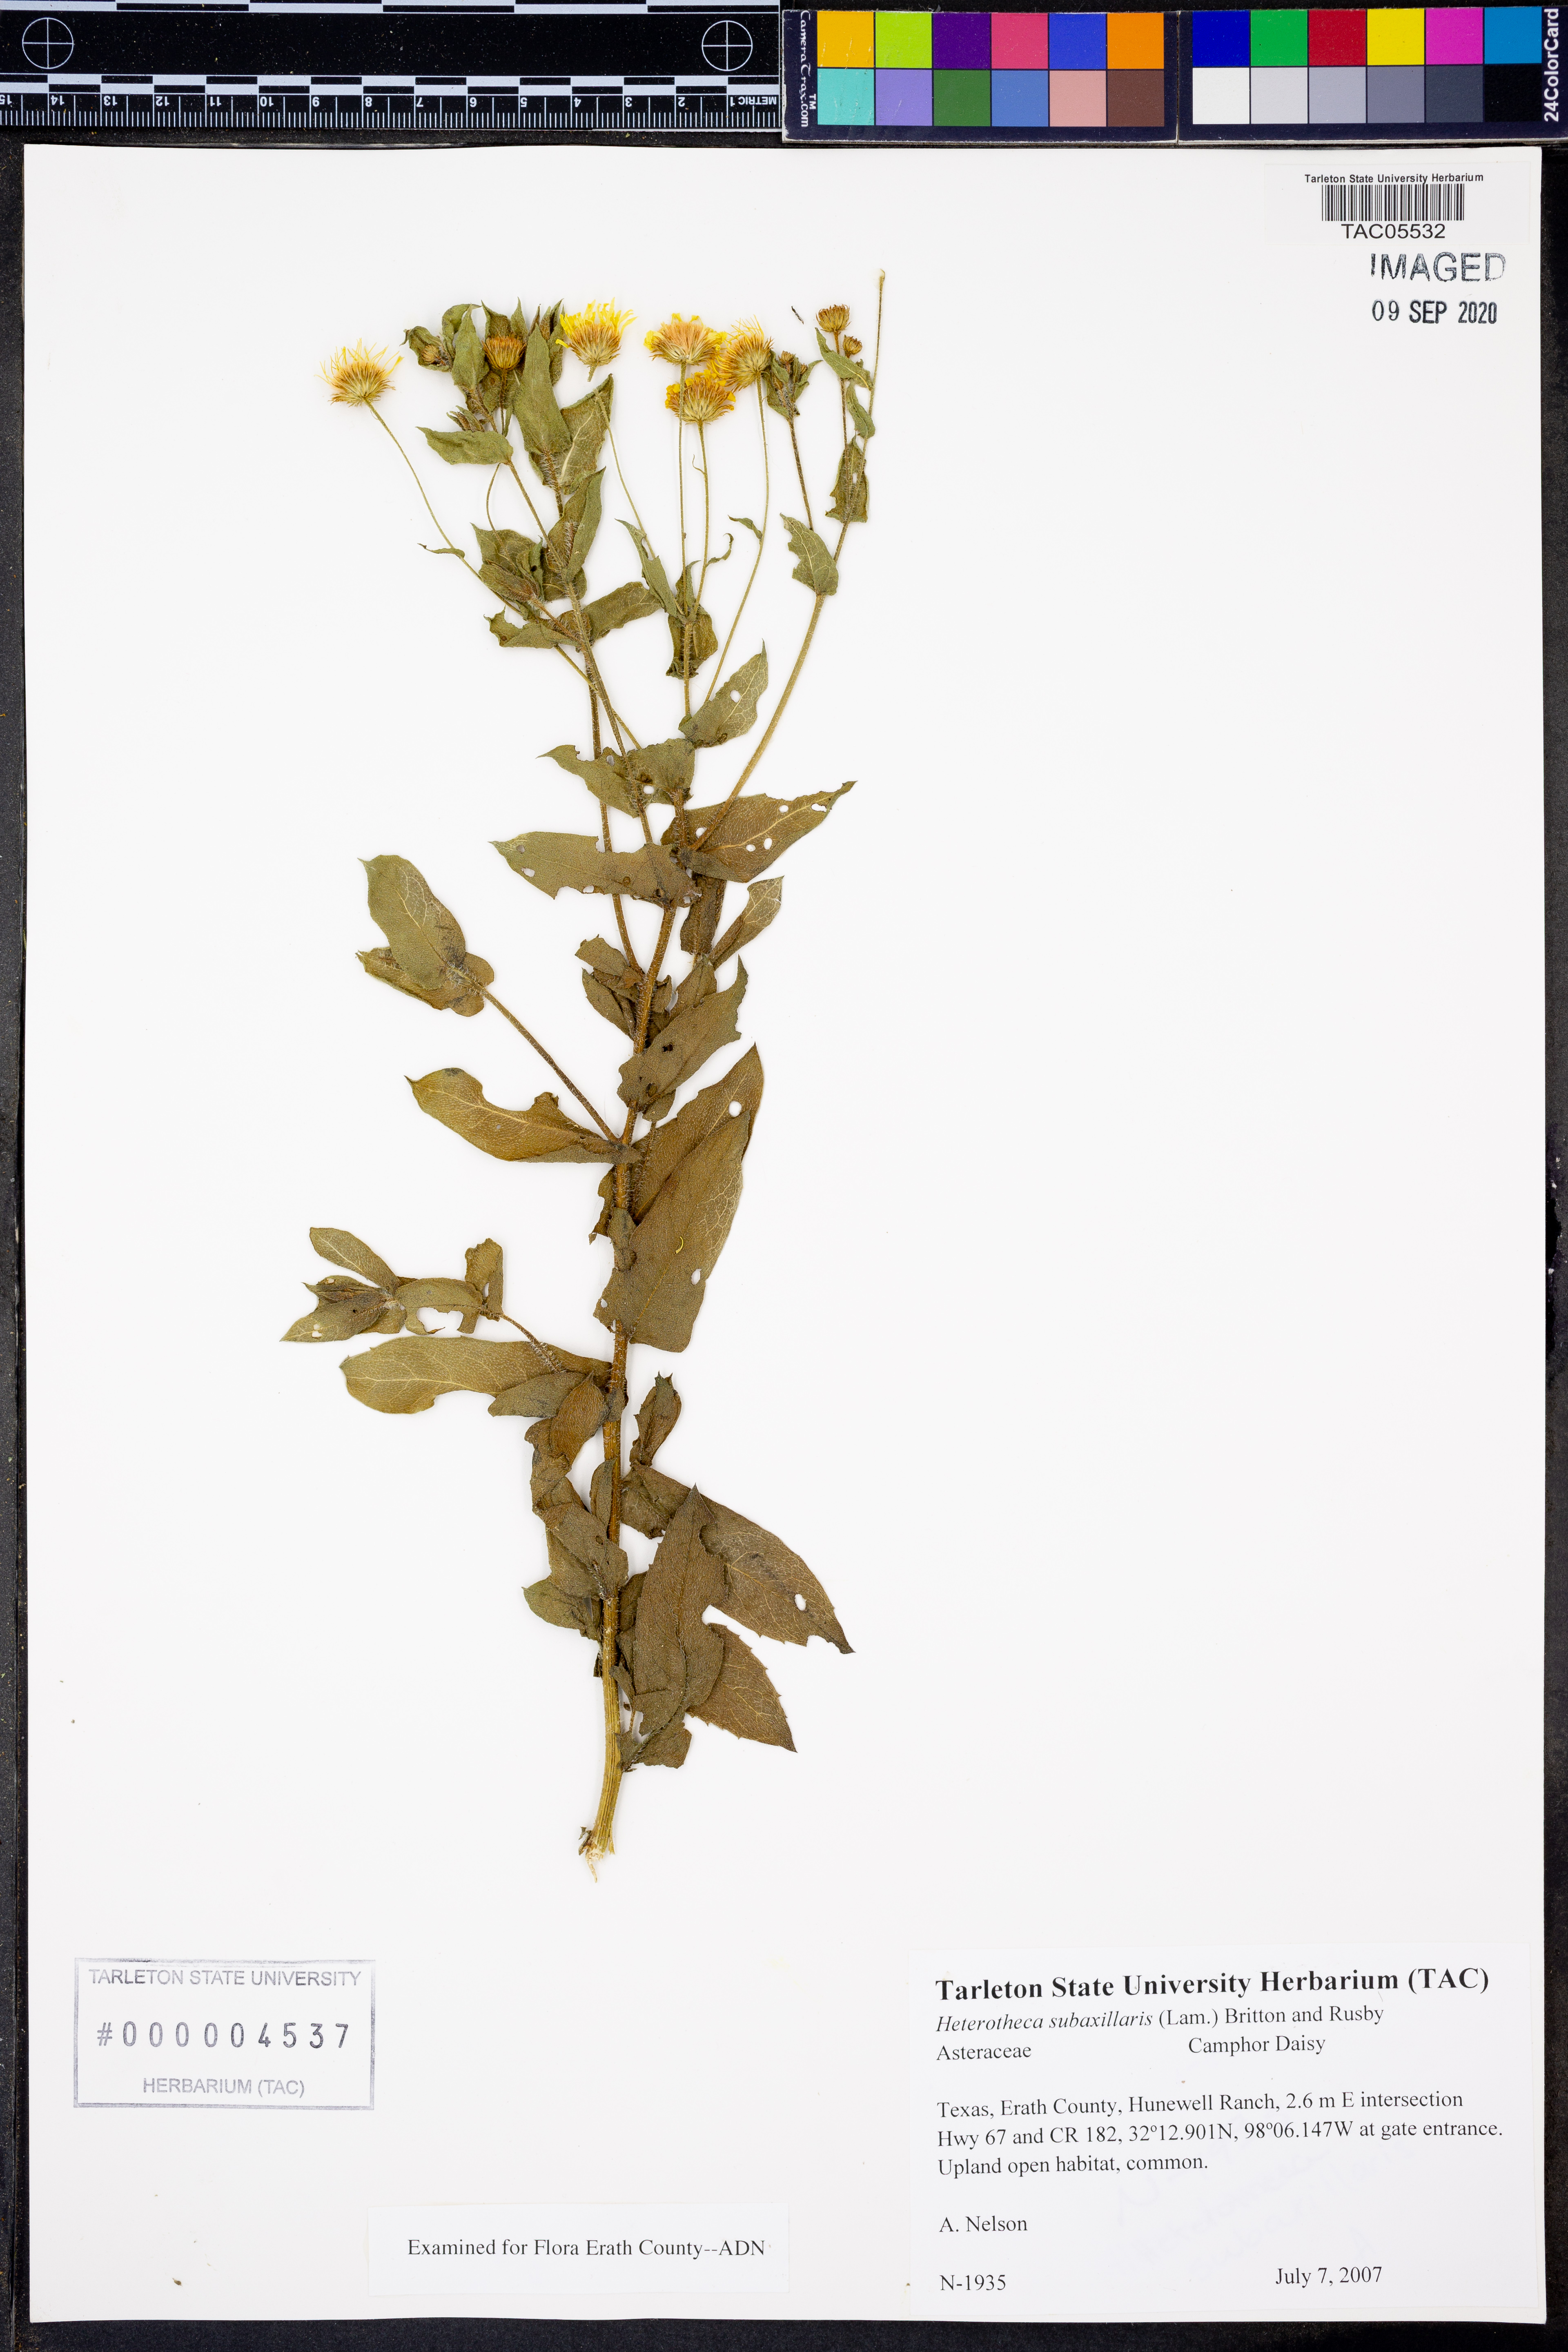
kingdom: Plantae
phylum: Tracheophyta
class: Magnoliopsida
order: Asterales
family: Asteraceae
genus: Heterotheca
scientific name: Heterotheca subaxillaris
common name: Camphorweed
